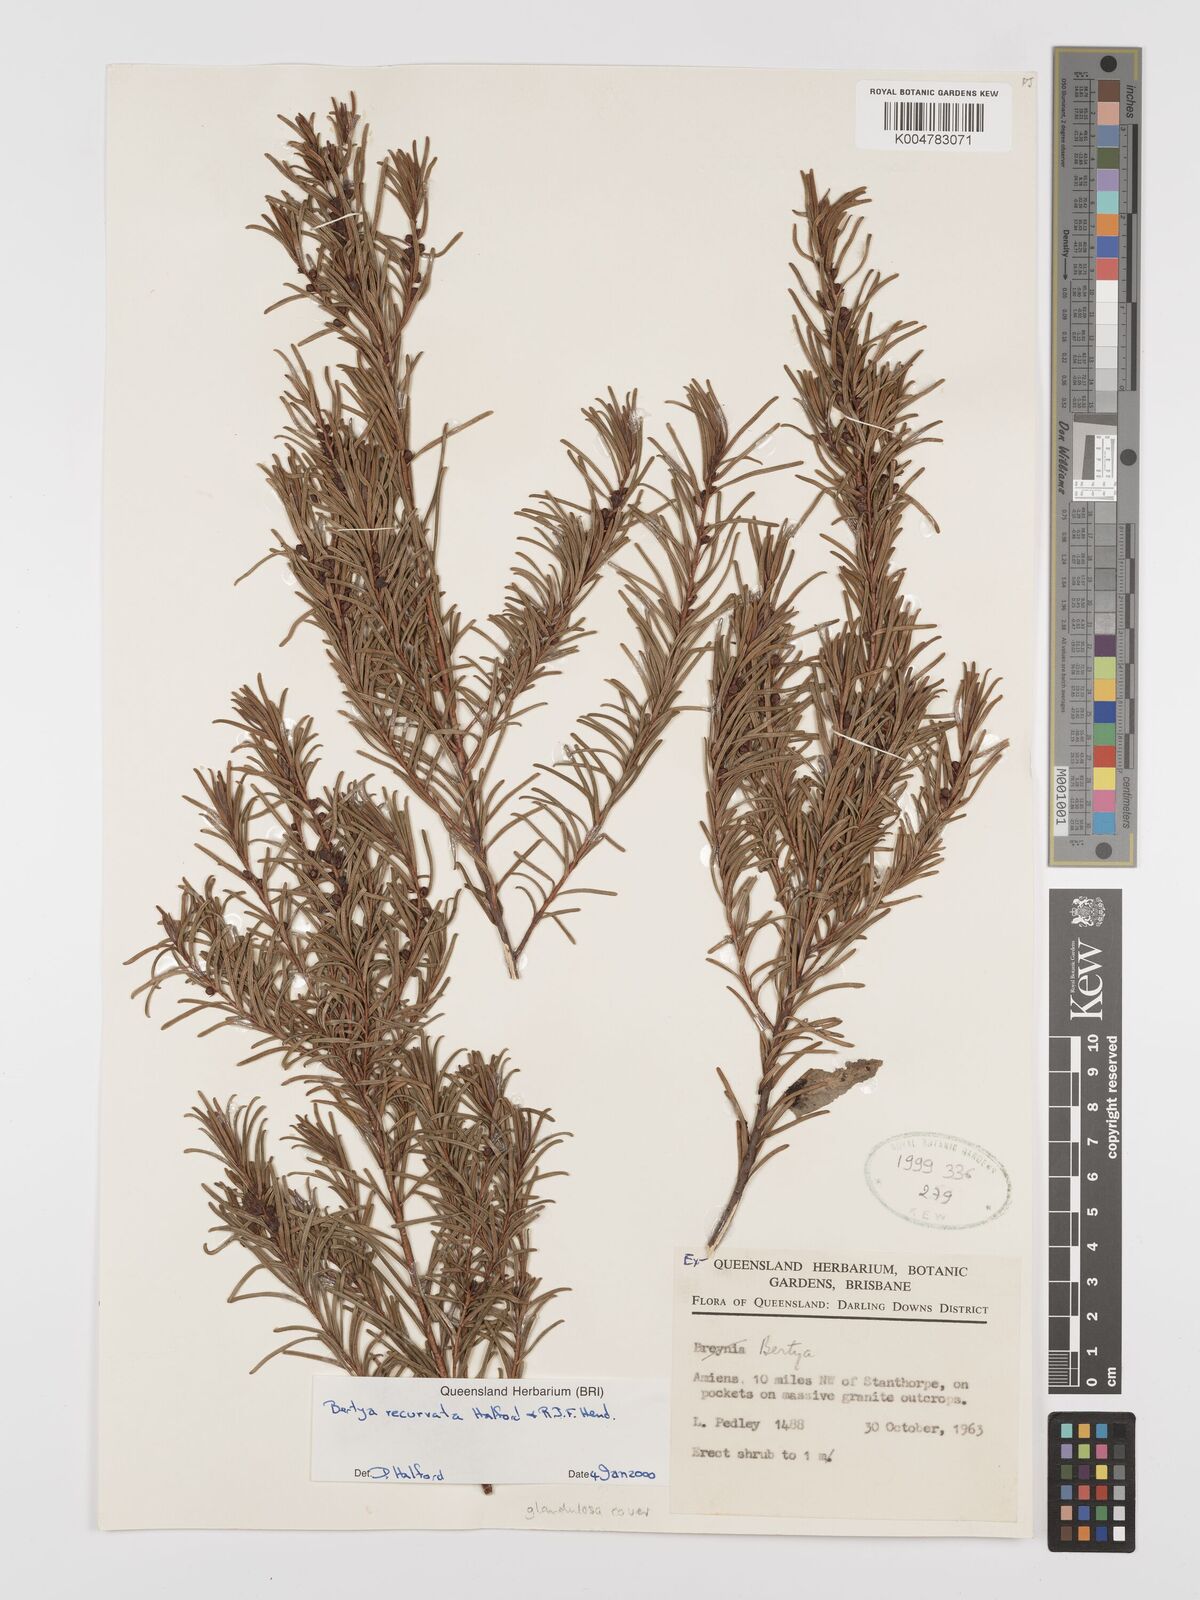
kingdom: Plantae
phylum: Tracheophyta
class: Magnoliopsida
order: Malpighiales
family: Euphorbiaceae
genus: Bertya
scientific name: Bertya recurvata
